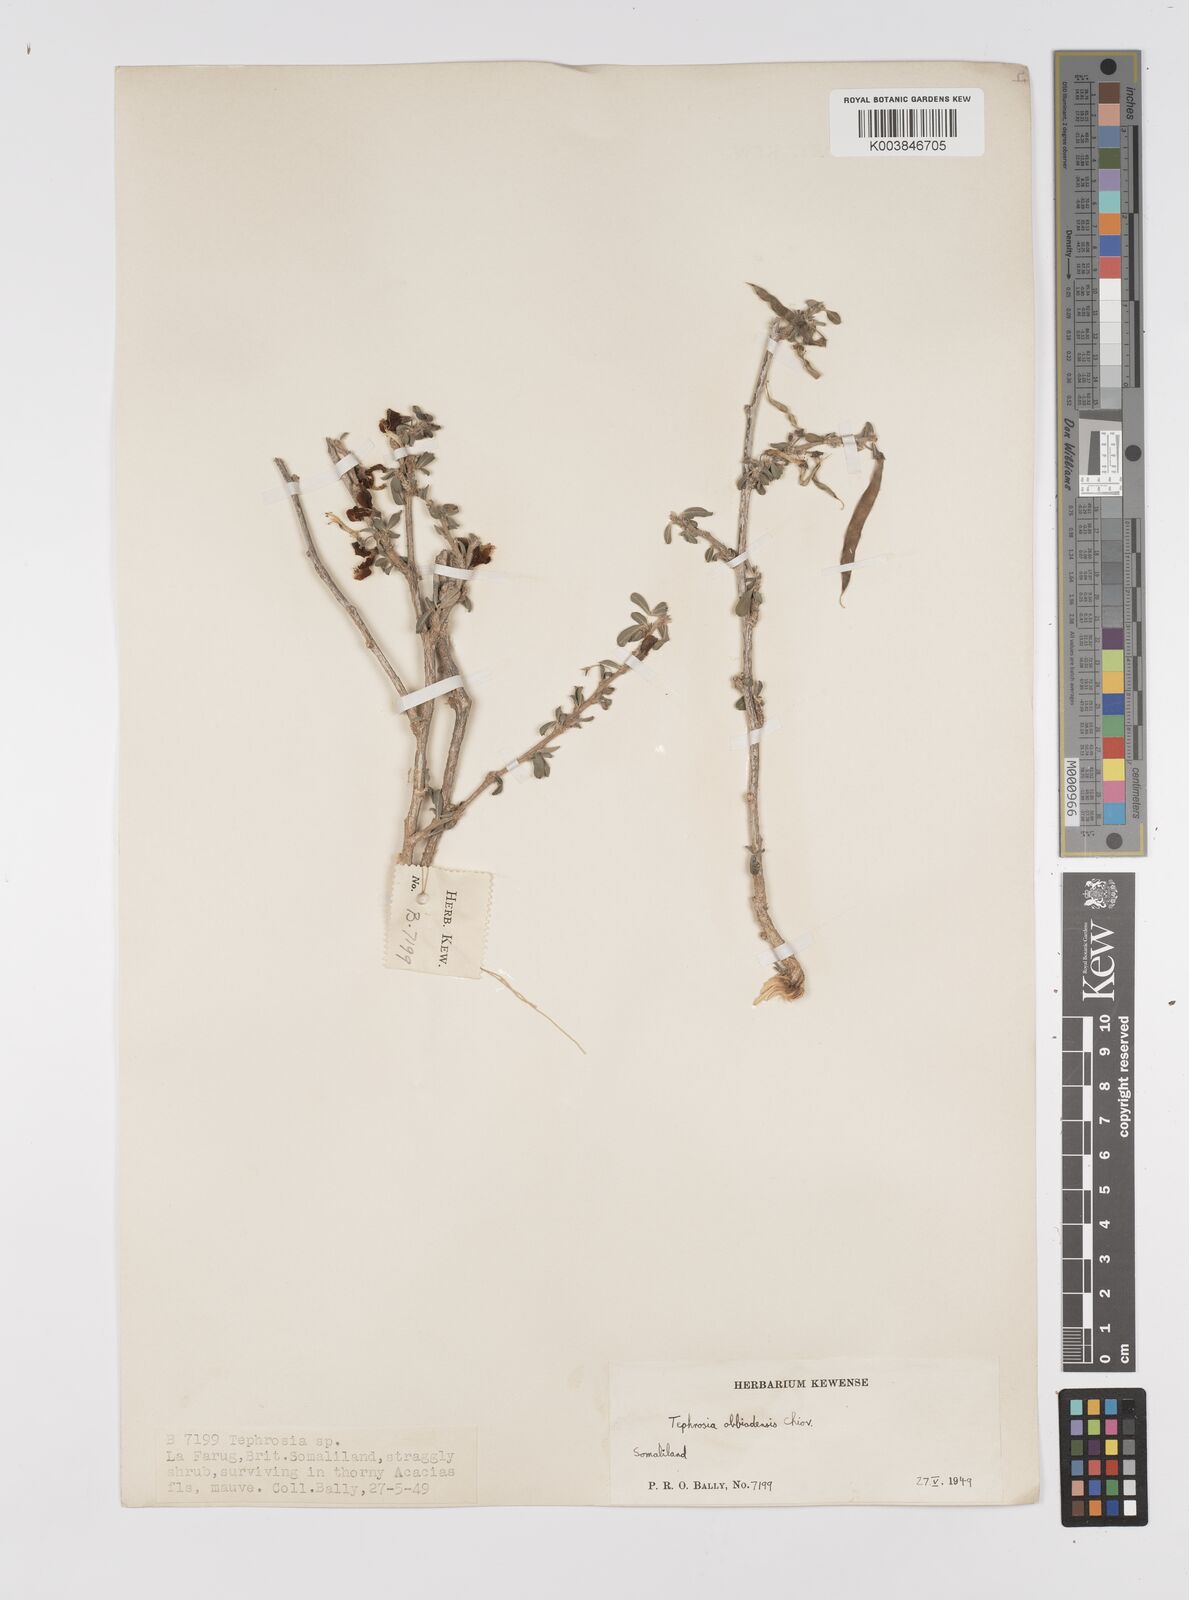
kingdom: Plantae
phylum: Tracheophyta
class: Magnoliopsida
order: Fabales
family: Fabaceae
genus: Tephrosia
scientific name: Tephrosia obbiadensis
